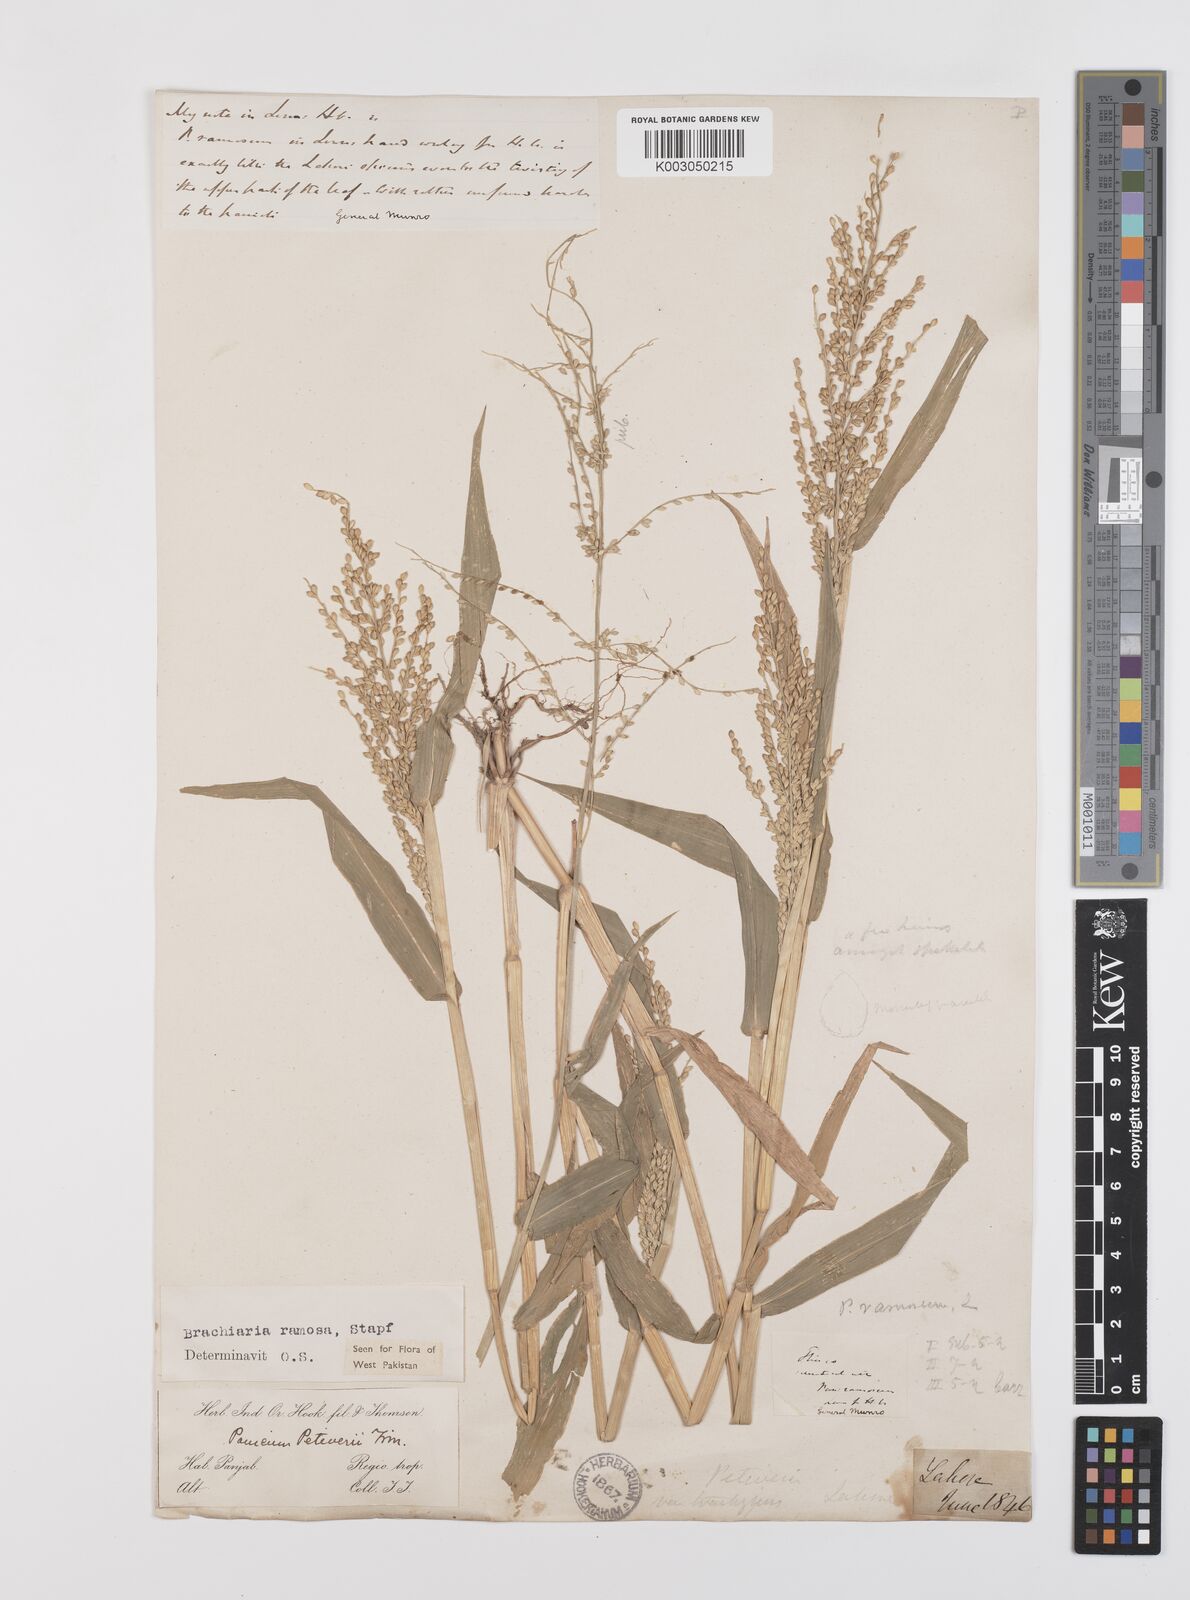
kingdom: Plantae
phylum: Tracheophyta
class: Liliopsida
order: Poales
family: Poaceae
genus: Urochloa
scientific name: Urochloa ramosa
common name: Browntop millet
